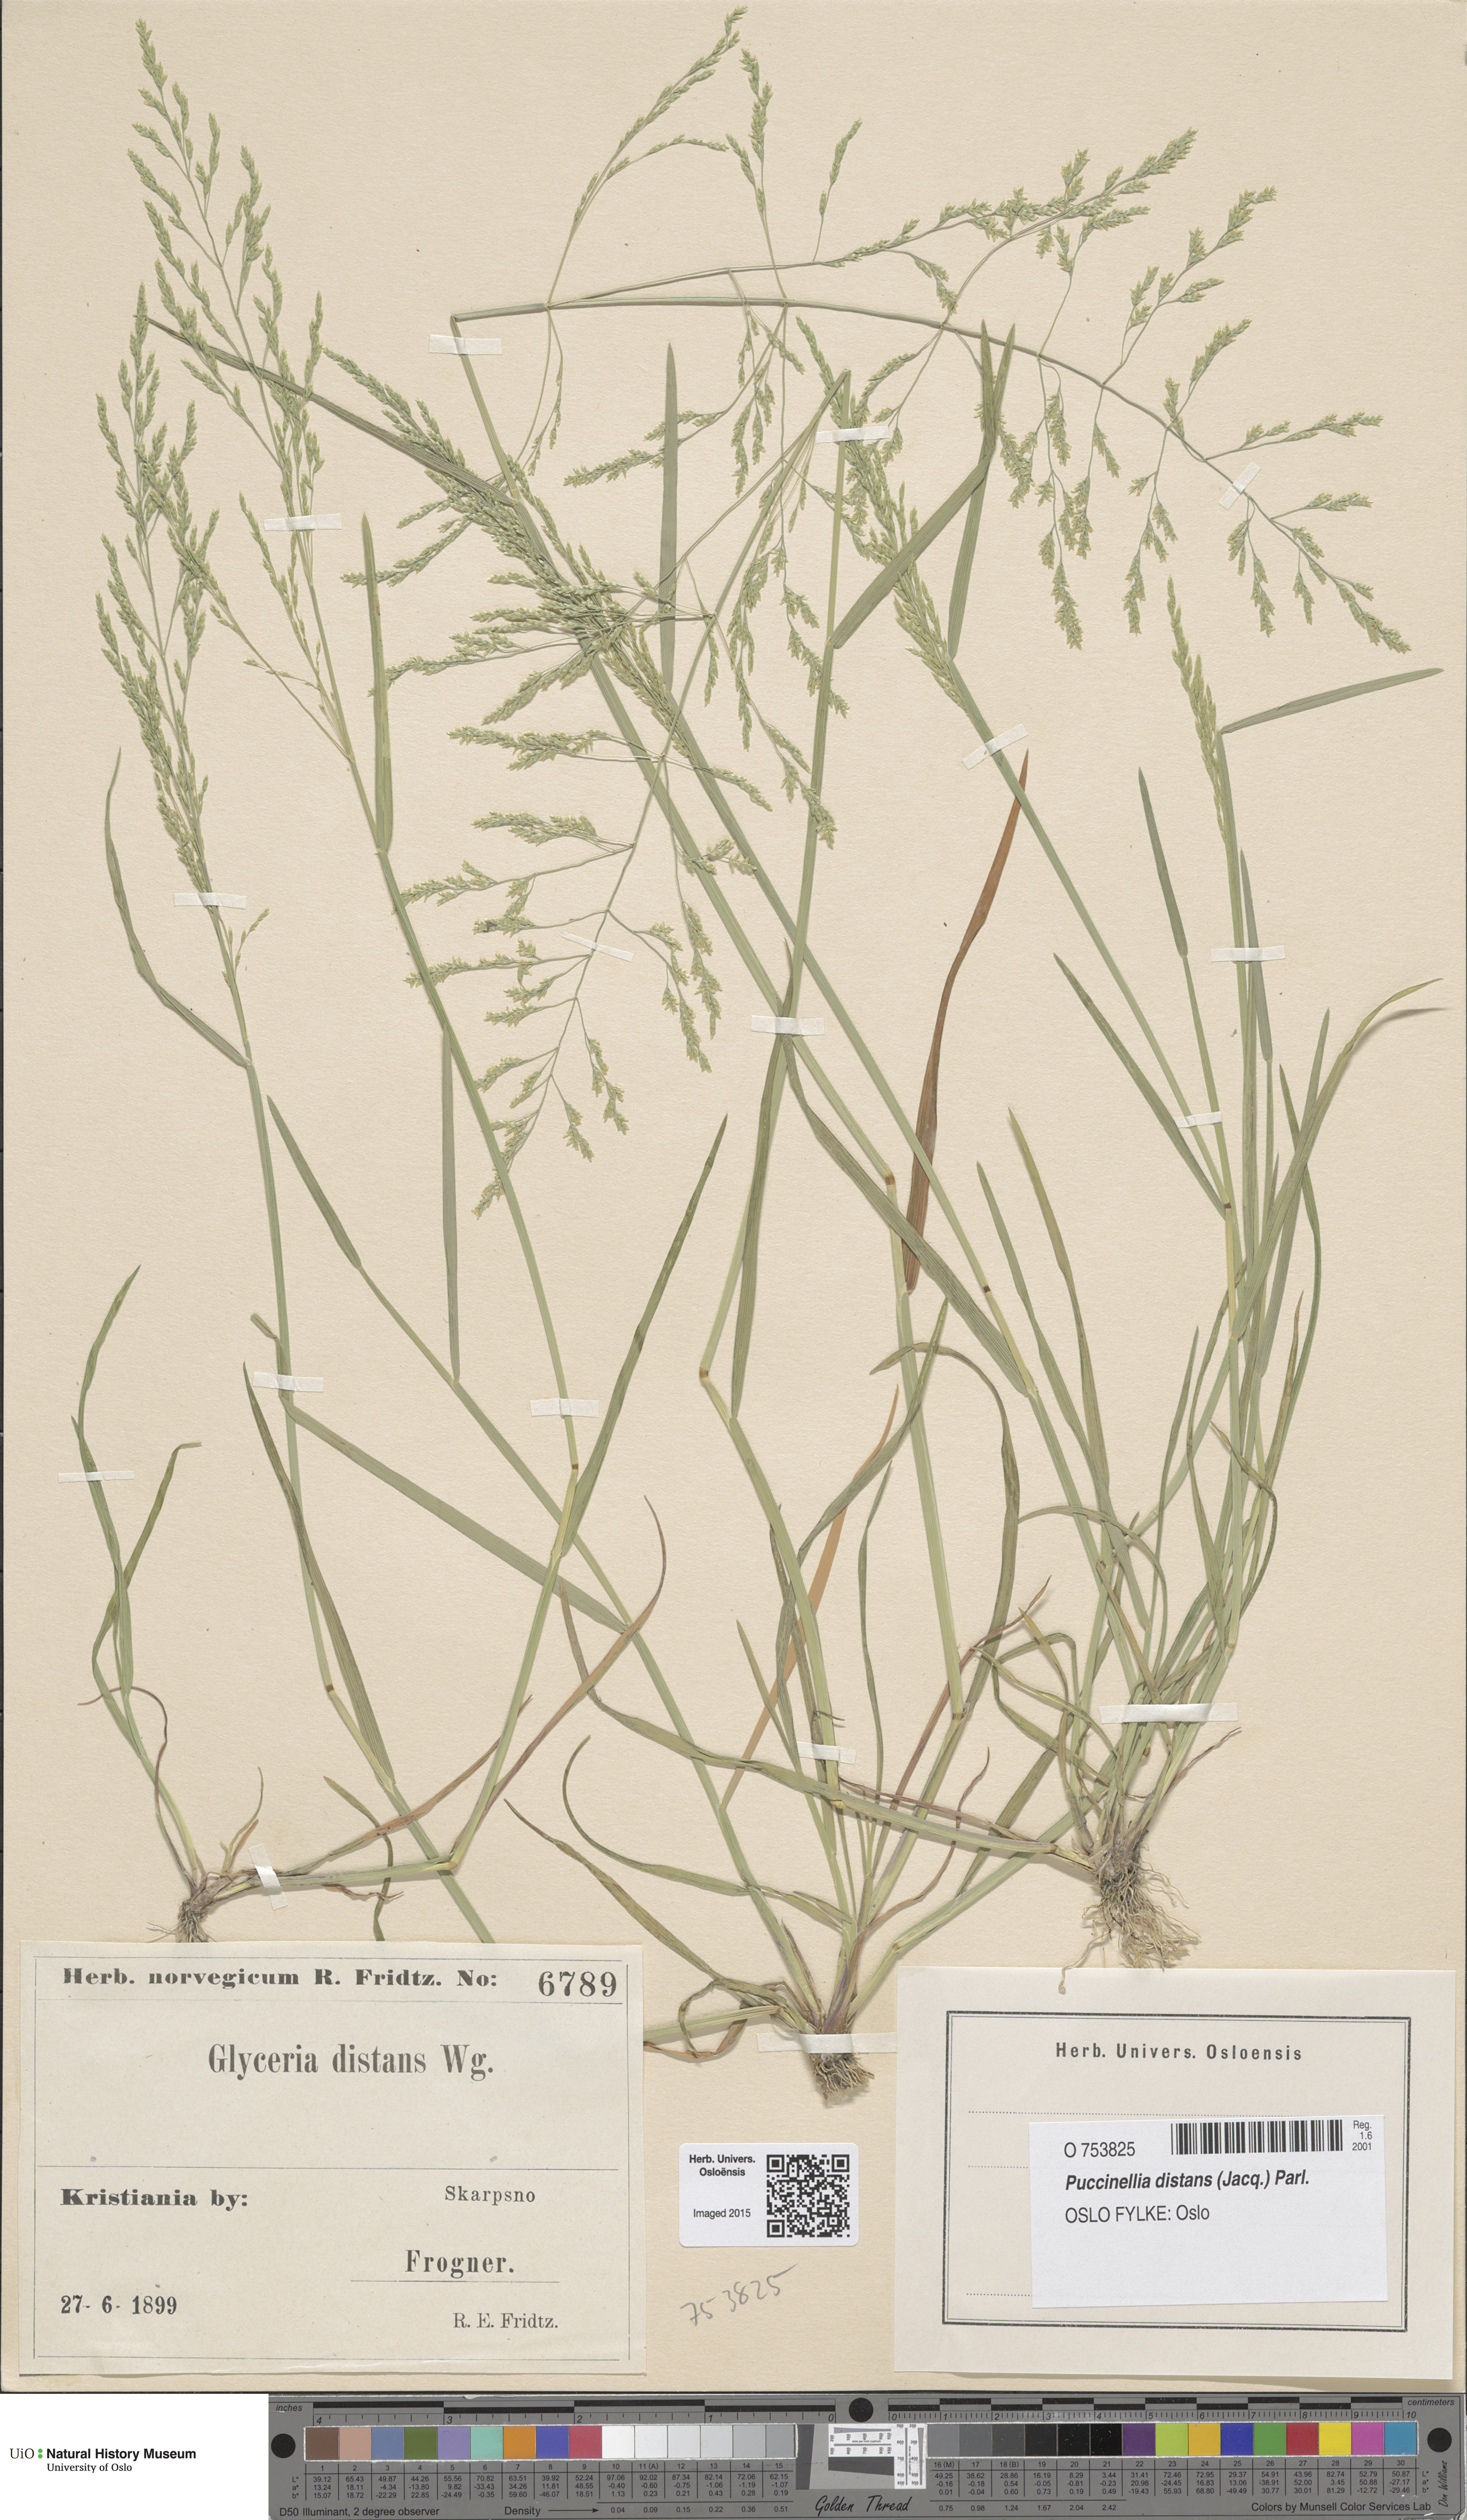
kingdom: Plantae
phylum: Tracheophyta
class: Liliopsida
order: Poales
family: Poaceae
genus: Puccinellia
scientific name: Puccinellia distans
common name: Weeping alkaligrass
